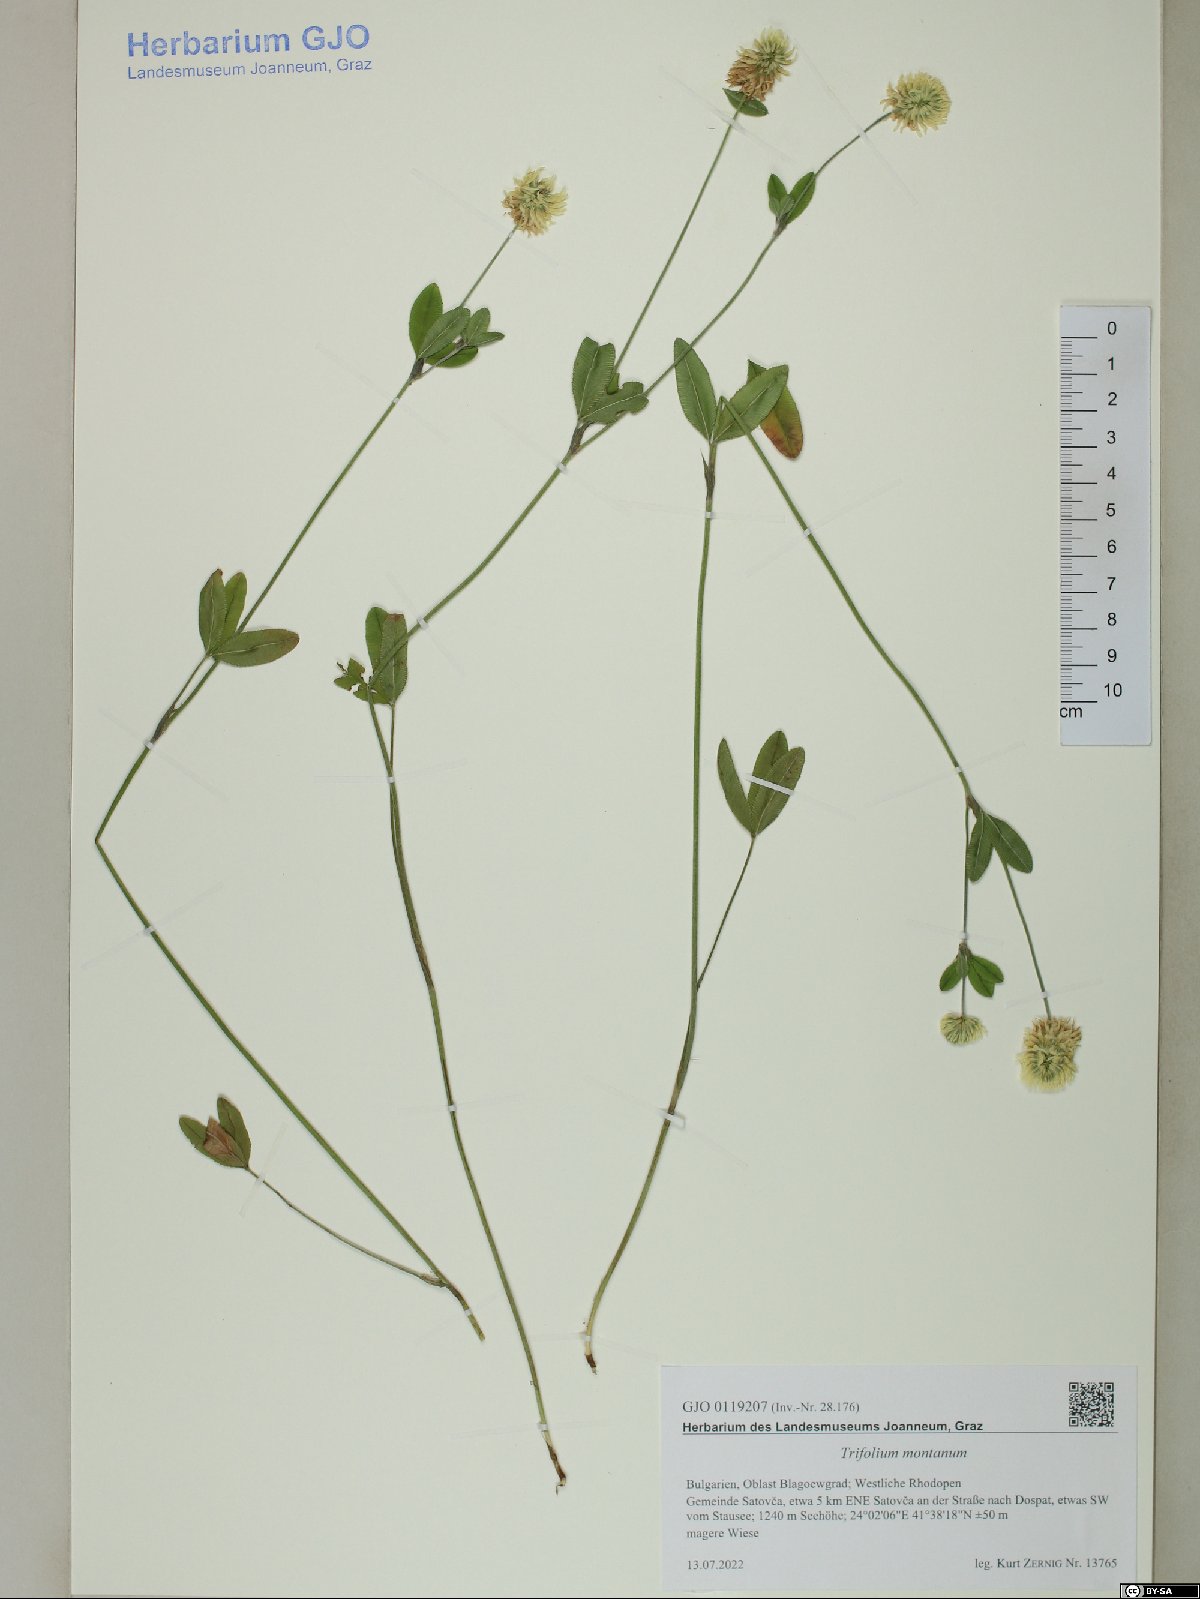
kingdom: Plantae
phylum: Tracheophyta
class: Magnoliopsida
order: Fabales
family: Fabaceae
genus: Trifolium
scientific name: Trifolium montanum
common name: Mountain clover
